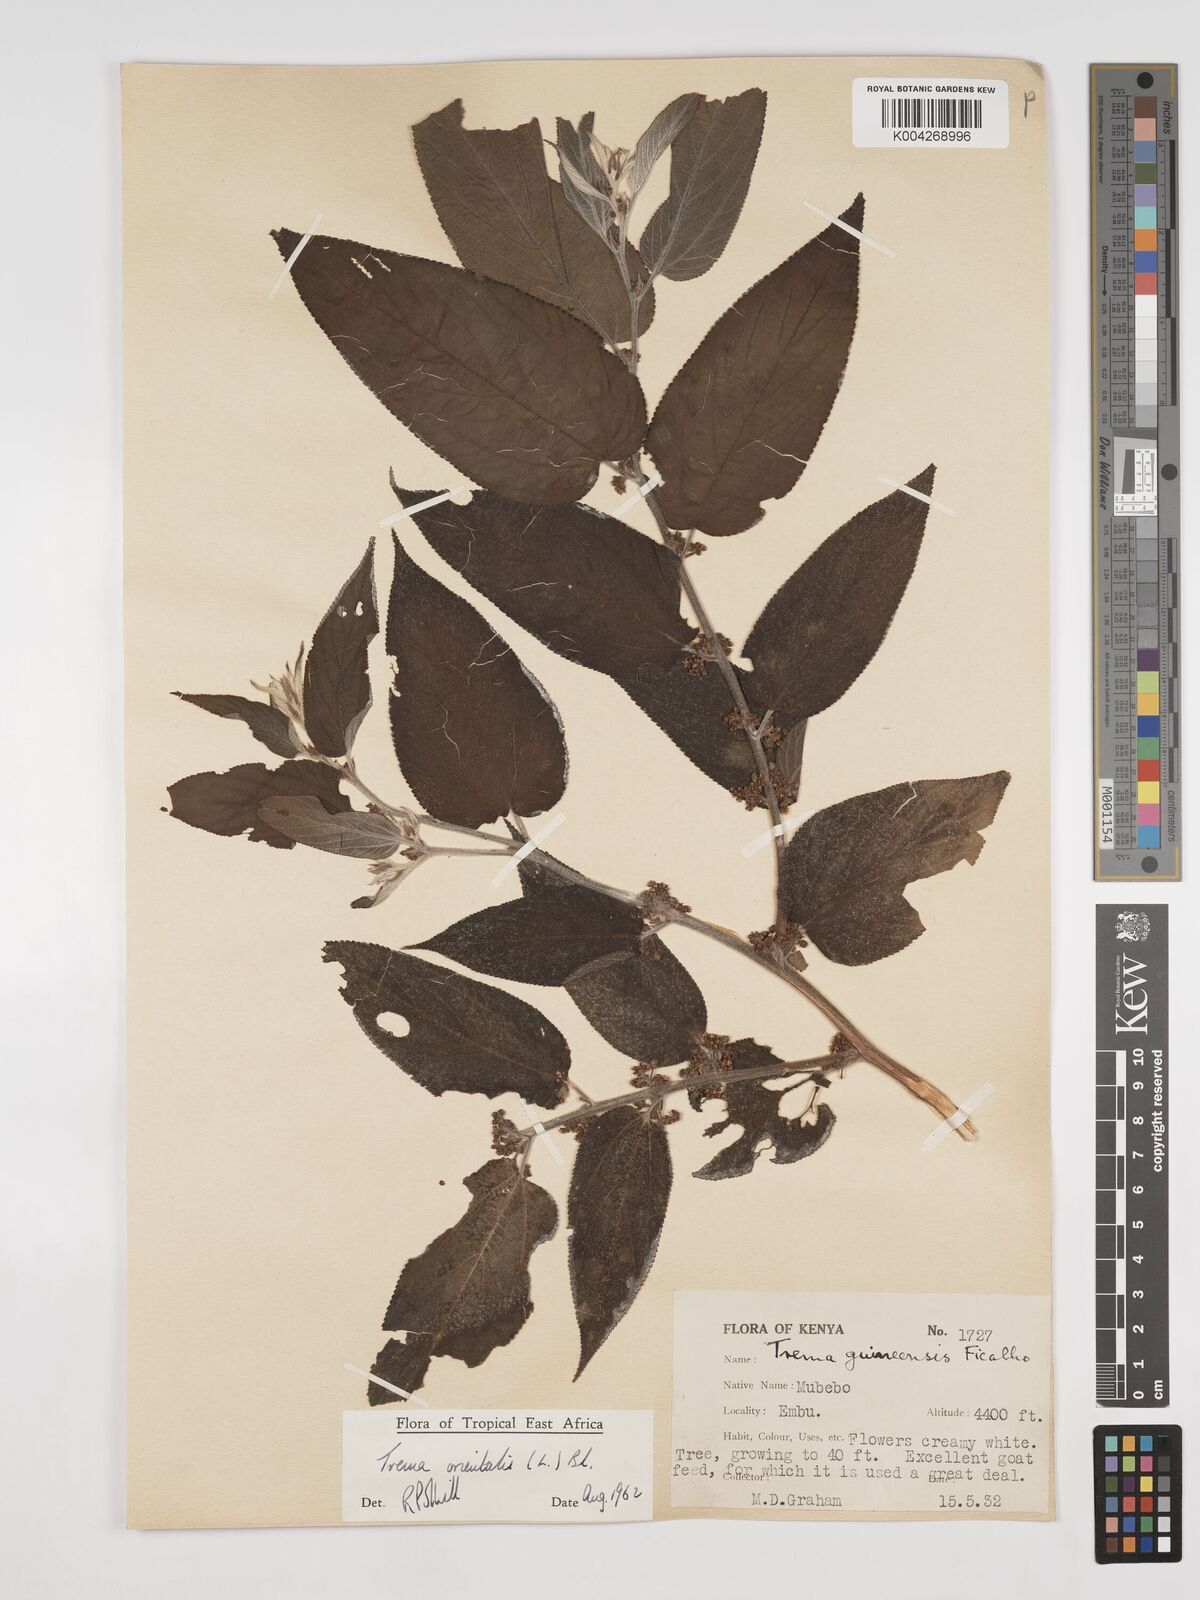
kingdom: Plantae
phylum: Tracheophyta
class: Magnoliopsida
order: Rosales
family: Cannabaceae
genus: Trema
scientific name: Trema orientale
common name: Indian charcoal tree
